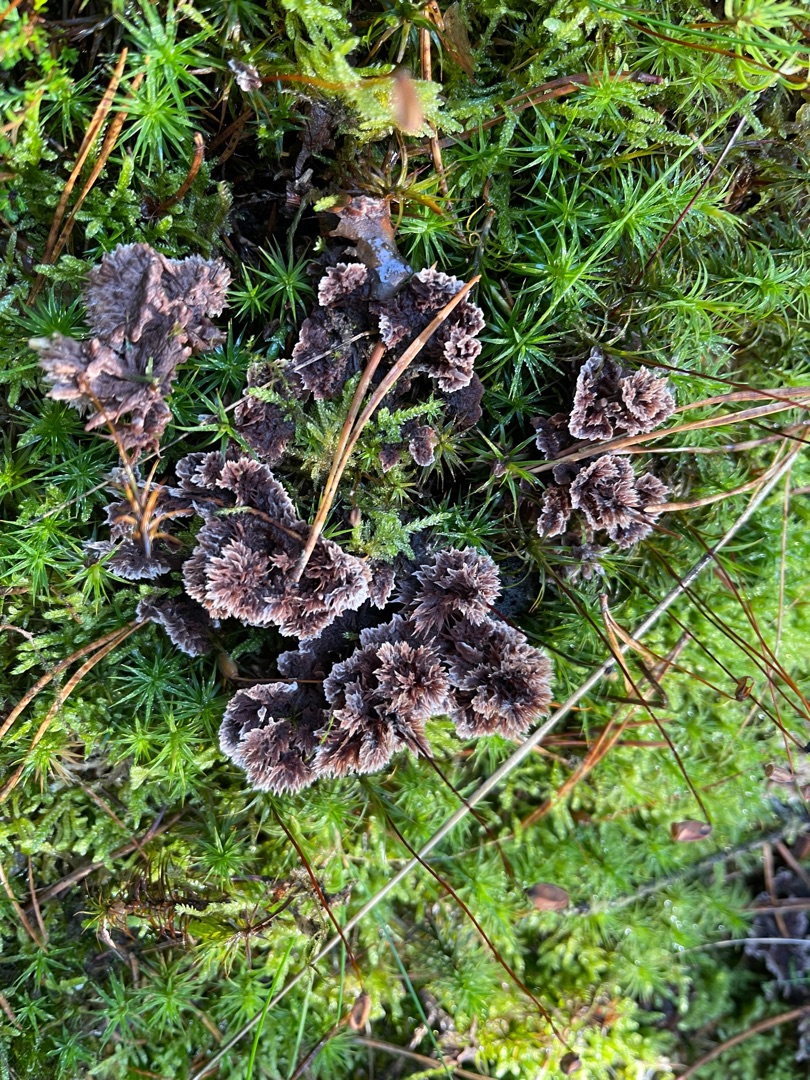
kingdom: Fungi
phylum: Basidiomycota
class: Agaricomycetes
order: Thelephorales
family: Thelephoraceae
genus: Thelephora
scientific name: Thelephora terrestris
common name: Fliget frynsesvamp
